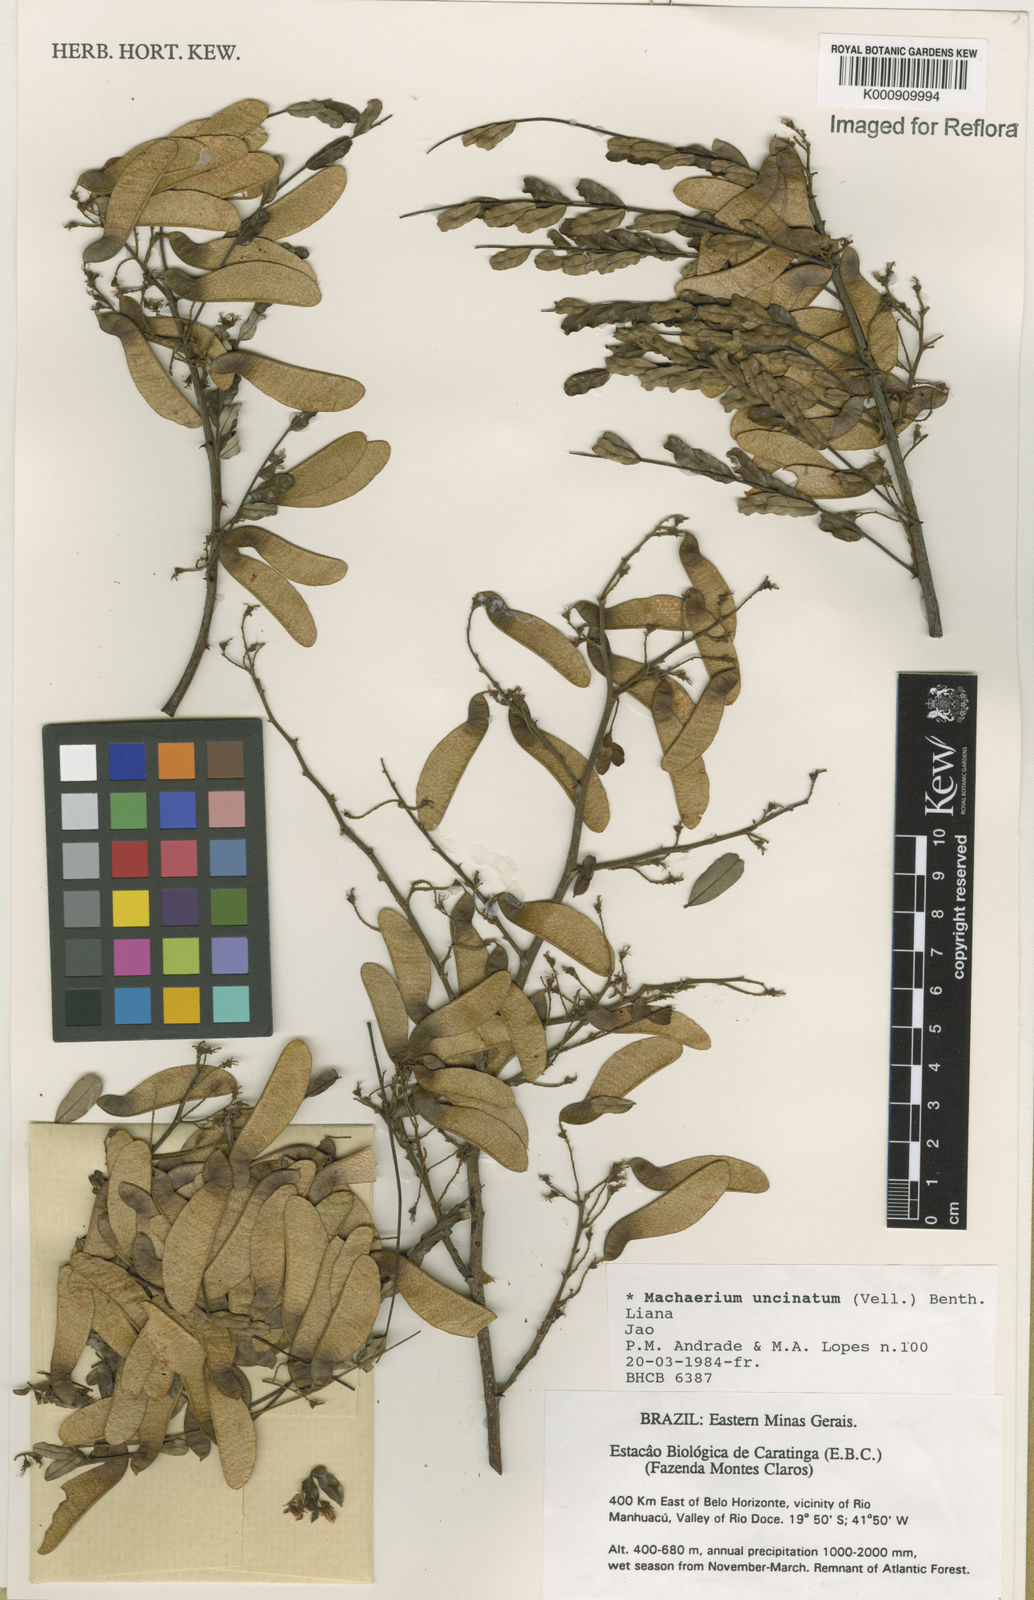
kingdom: Plantae
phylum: Tracheophyta
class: Magnoliopsida
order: Fabales
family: Fabaceae
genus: Machaerium
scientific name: Machaerium uncinatum
